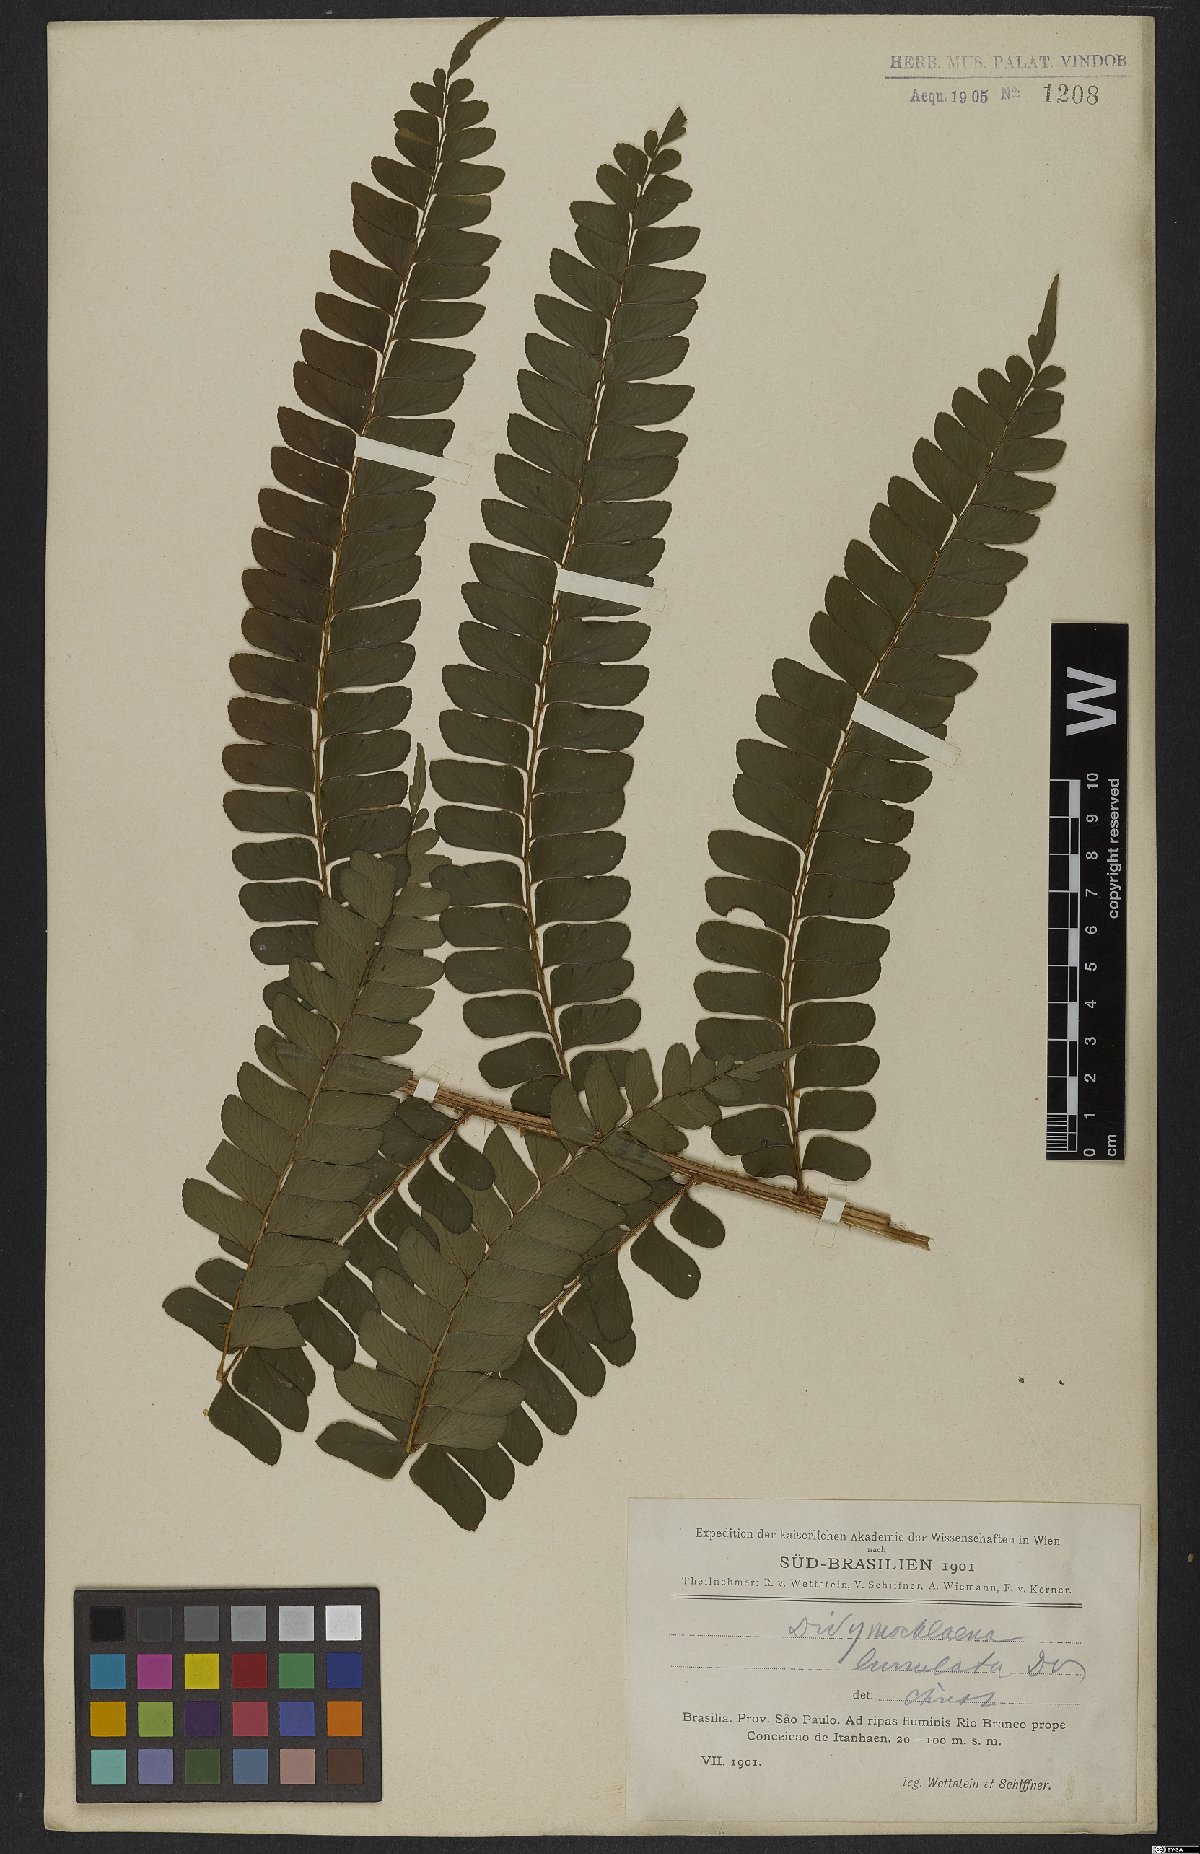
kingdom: Plantae
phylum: Tracheophyta
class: Polypodiopsida
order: Polypodiales
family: Didymochlaenaceae
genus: Didymochlaena
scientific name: Didymochlaena truncatula
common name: Mahogany fern
